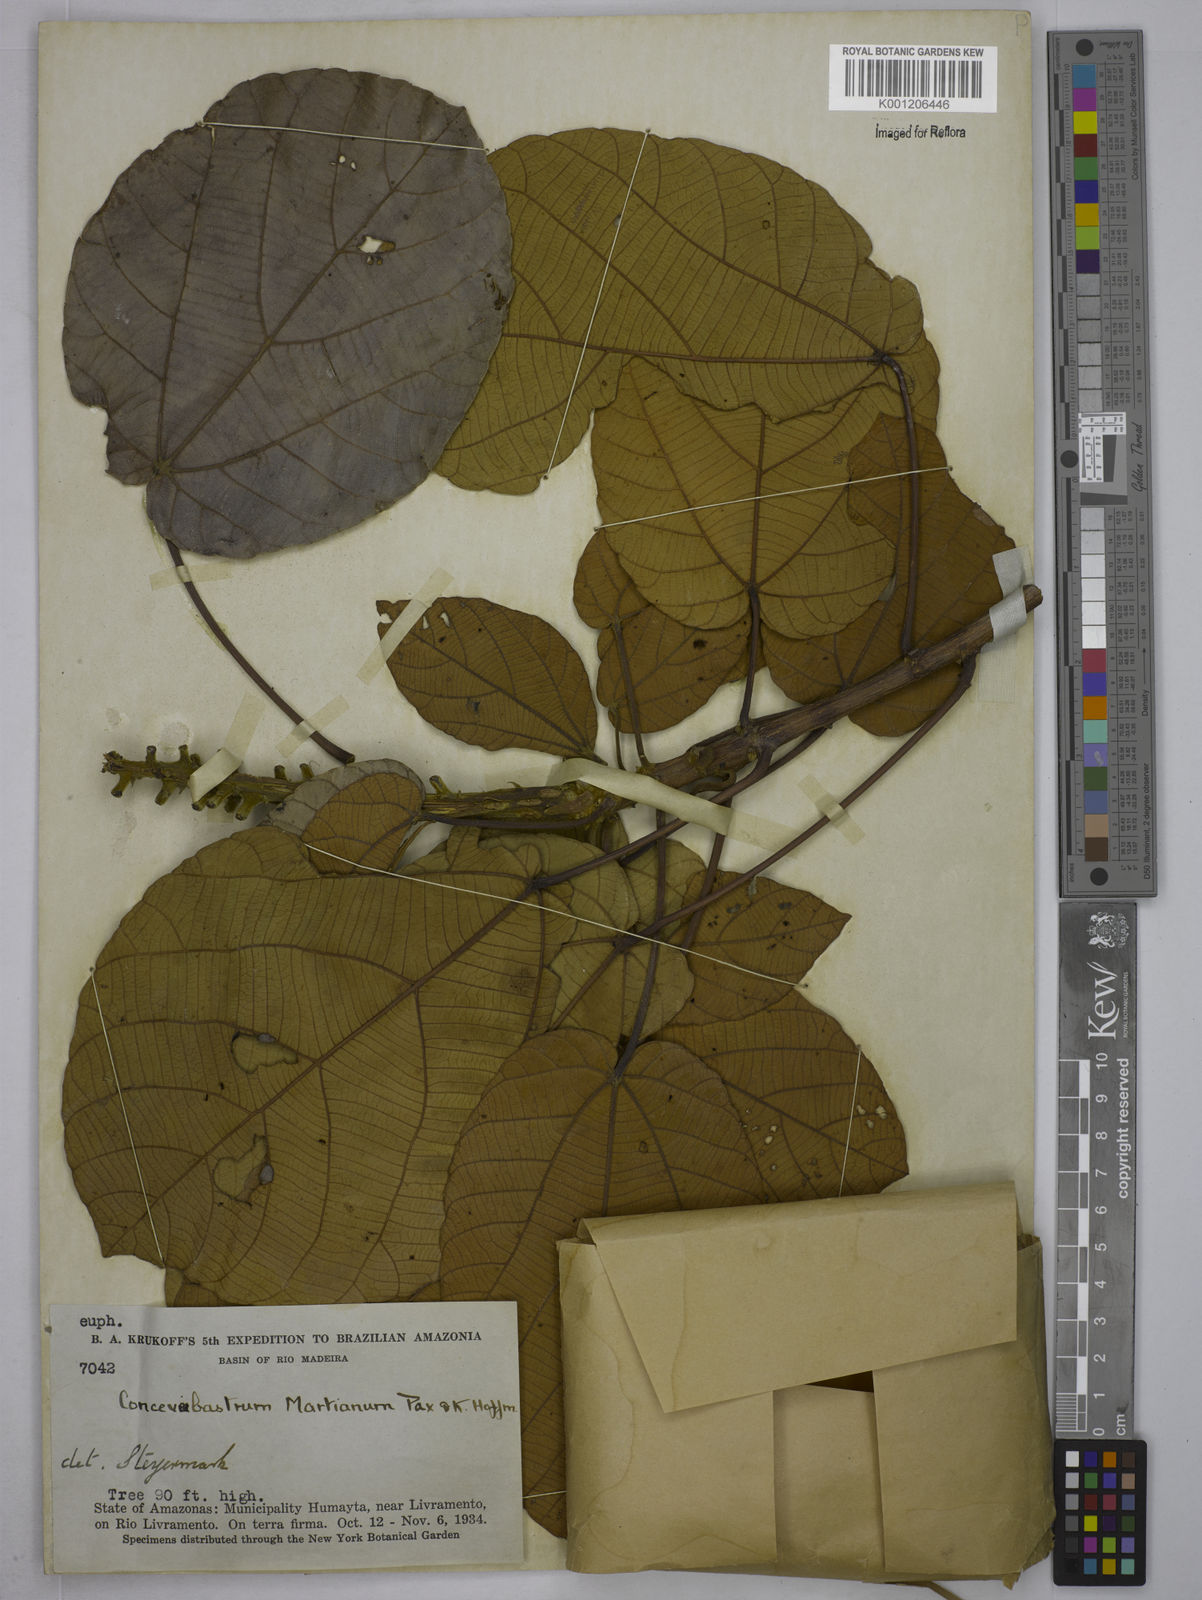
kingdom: Plantae
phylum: Tracheophyta
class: Magnoliopsida
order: Malpighiales
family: Euphorbiaceae
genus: Conceveiba
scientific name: Conceveiba martiana
